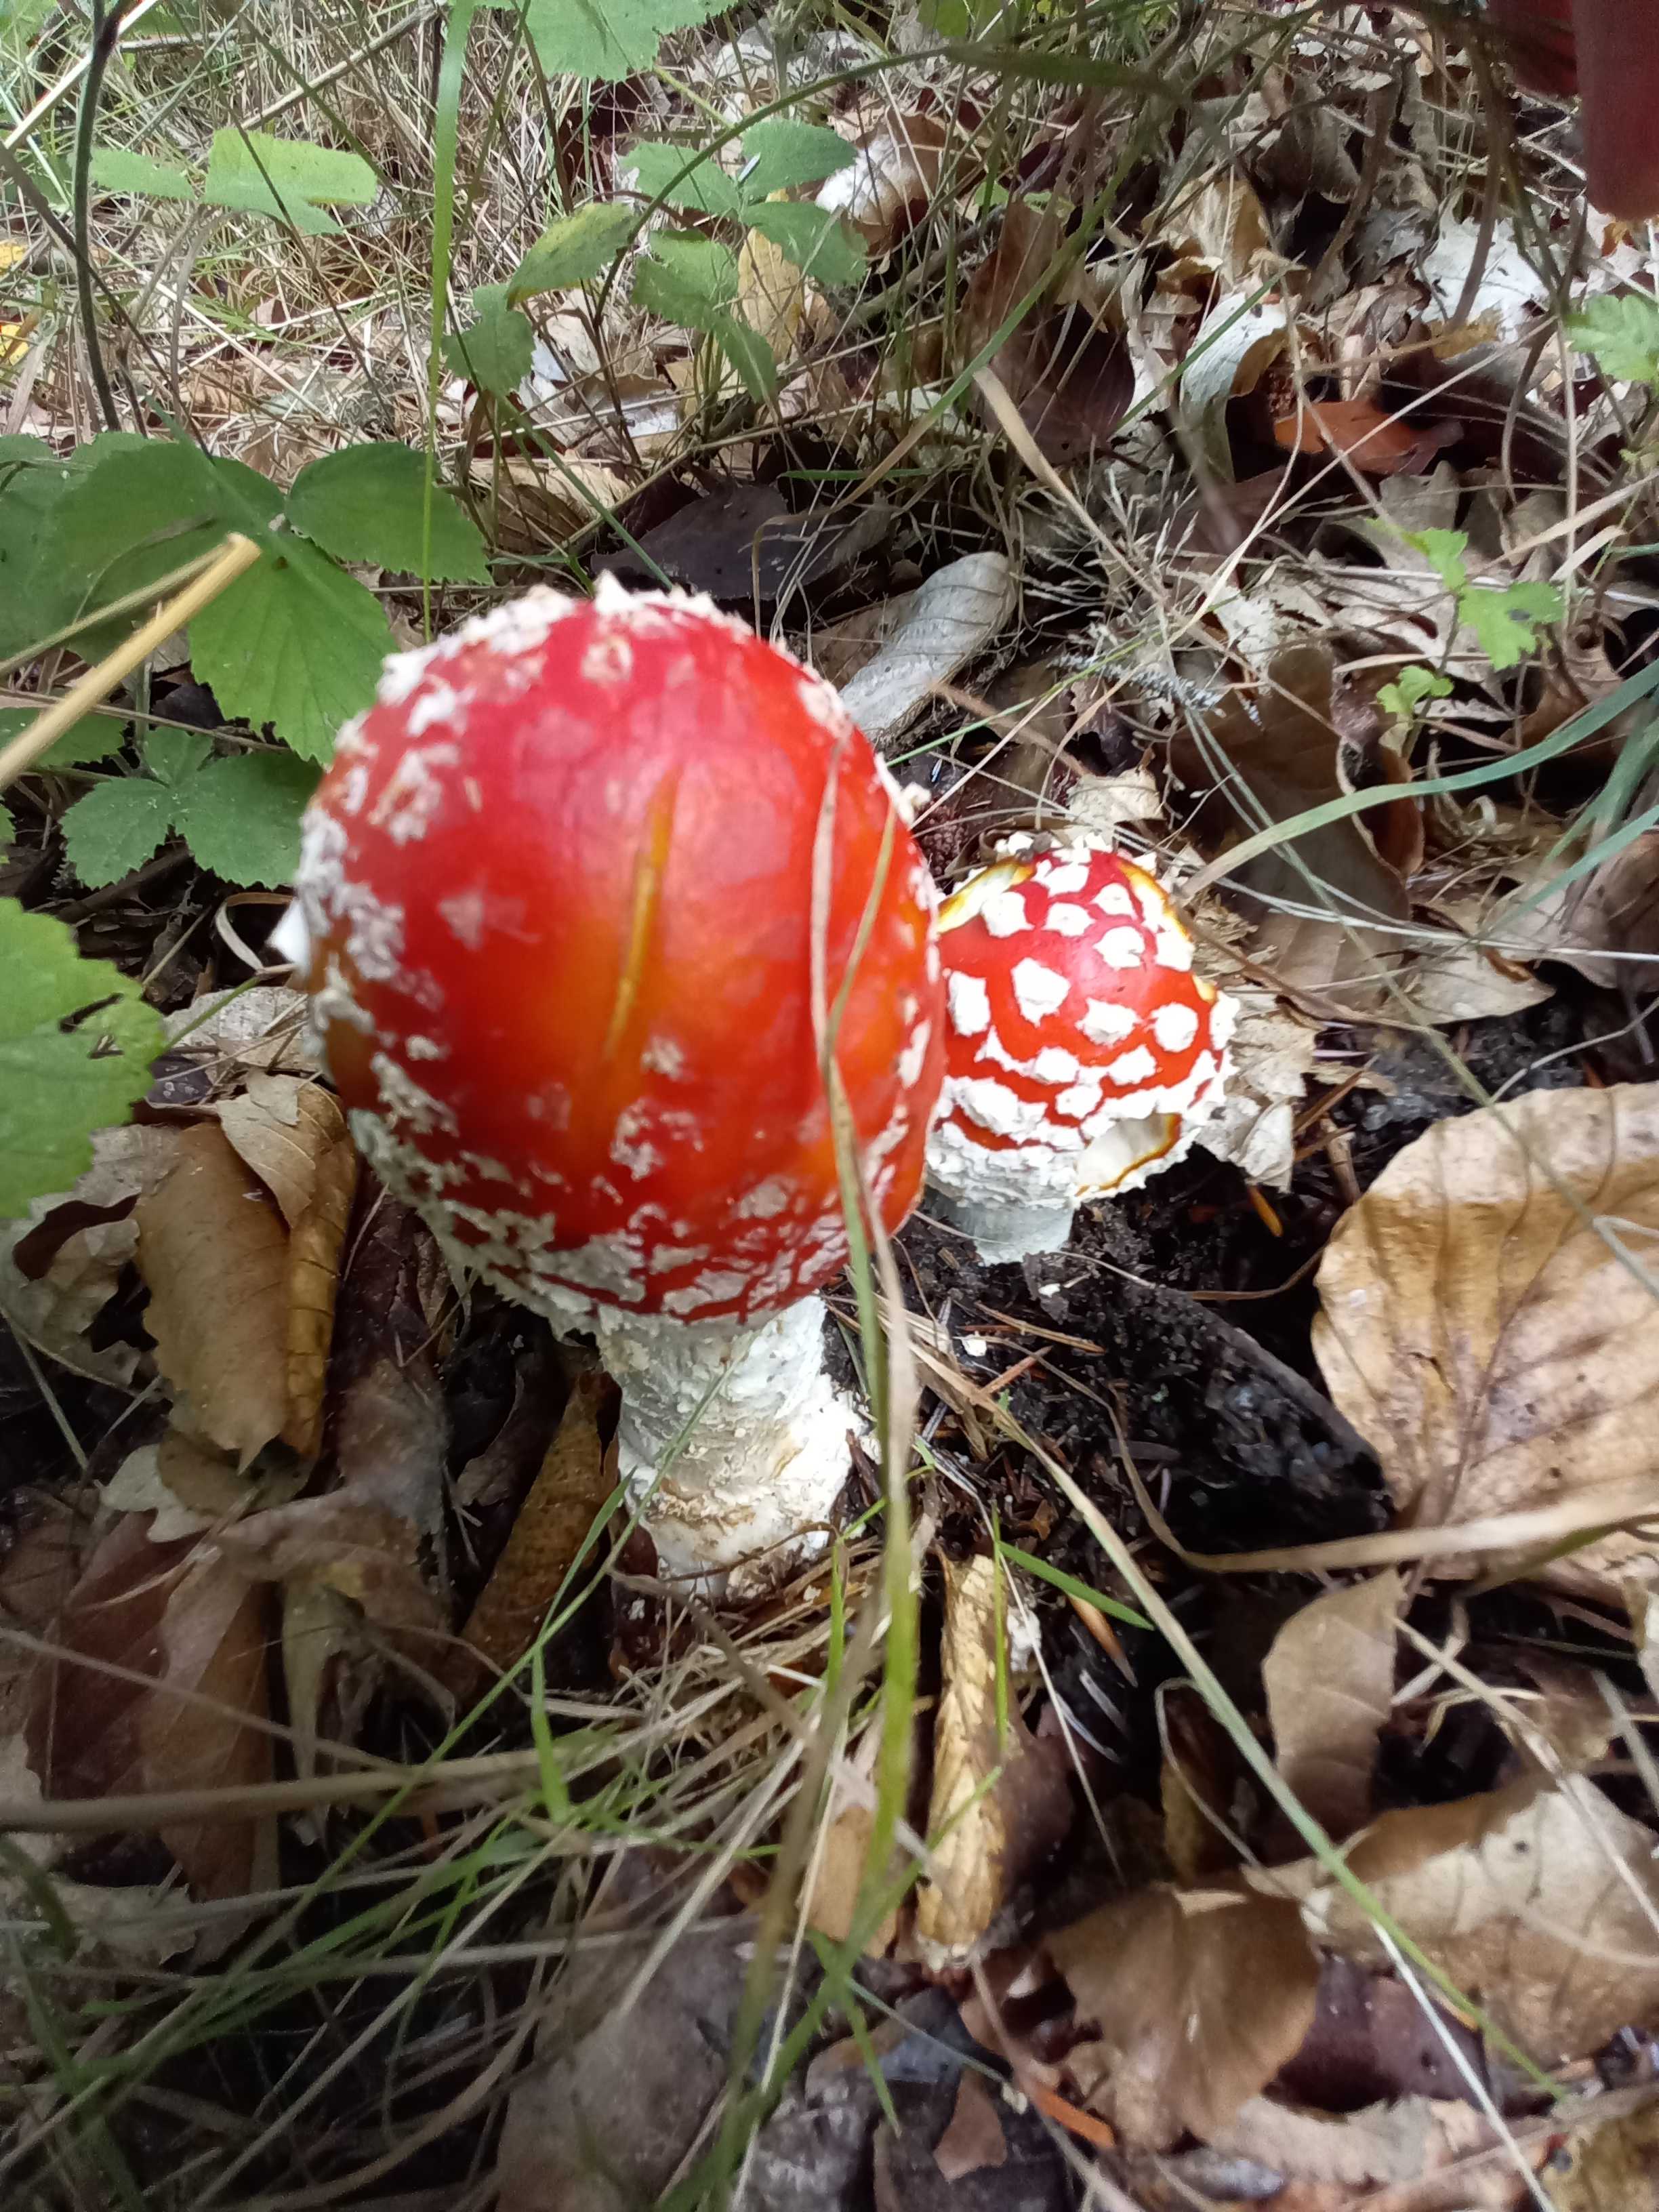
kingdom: Fungi
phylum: Basidiomycota
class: Agaricomycetes
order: Agaricales
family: Amanitaceae
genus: Amanita
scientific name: Amanita muscaria
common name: rød fluesvamp
